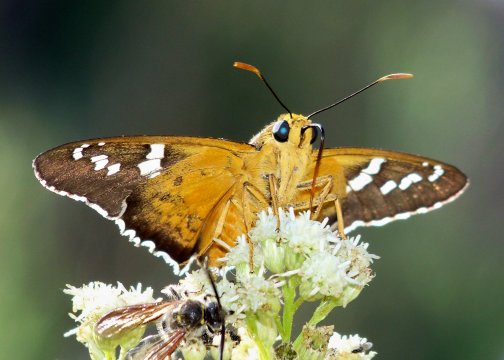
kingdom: Animalia
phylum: Arthropoda
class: Insecta
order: Lepidoptera
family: Hesperiidae
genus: Pyrrhopyge
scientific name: Pyrrhopyge araxes
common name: Dull Firetip
